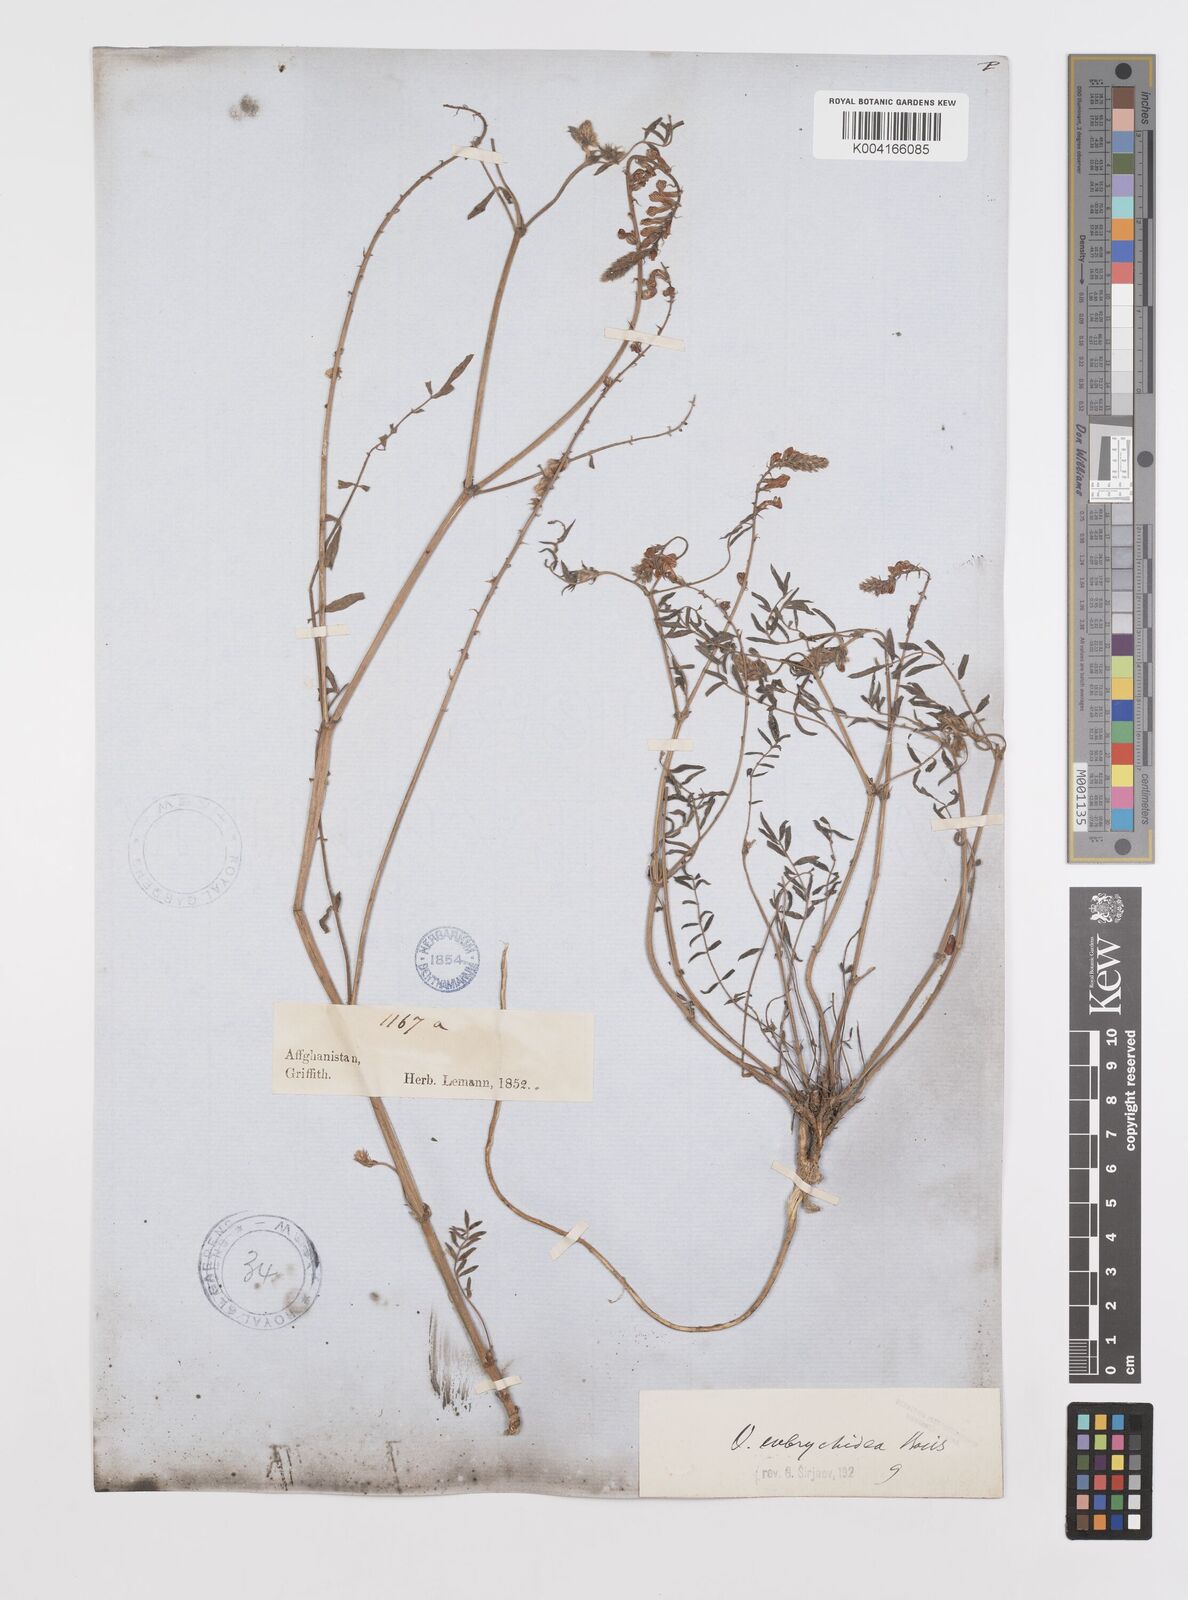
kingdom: Plantae
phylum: Tracheophyta
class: Magnoliopsida
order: Fabales
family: Fabaceae
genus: Onobrychis
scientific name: Onobrychis eubrychidea
